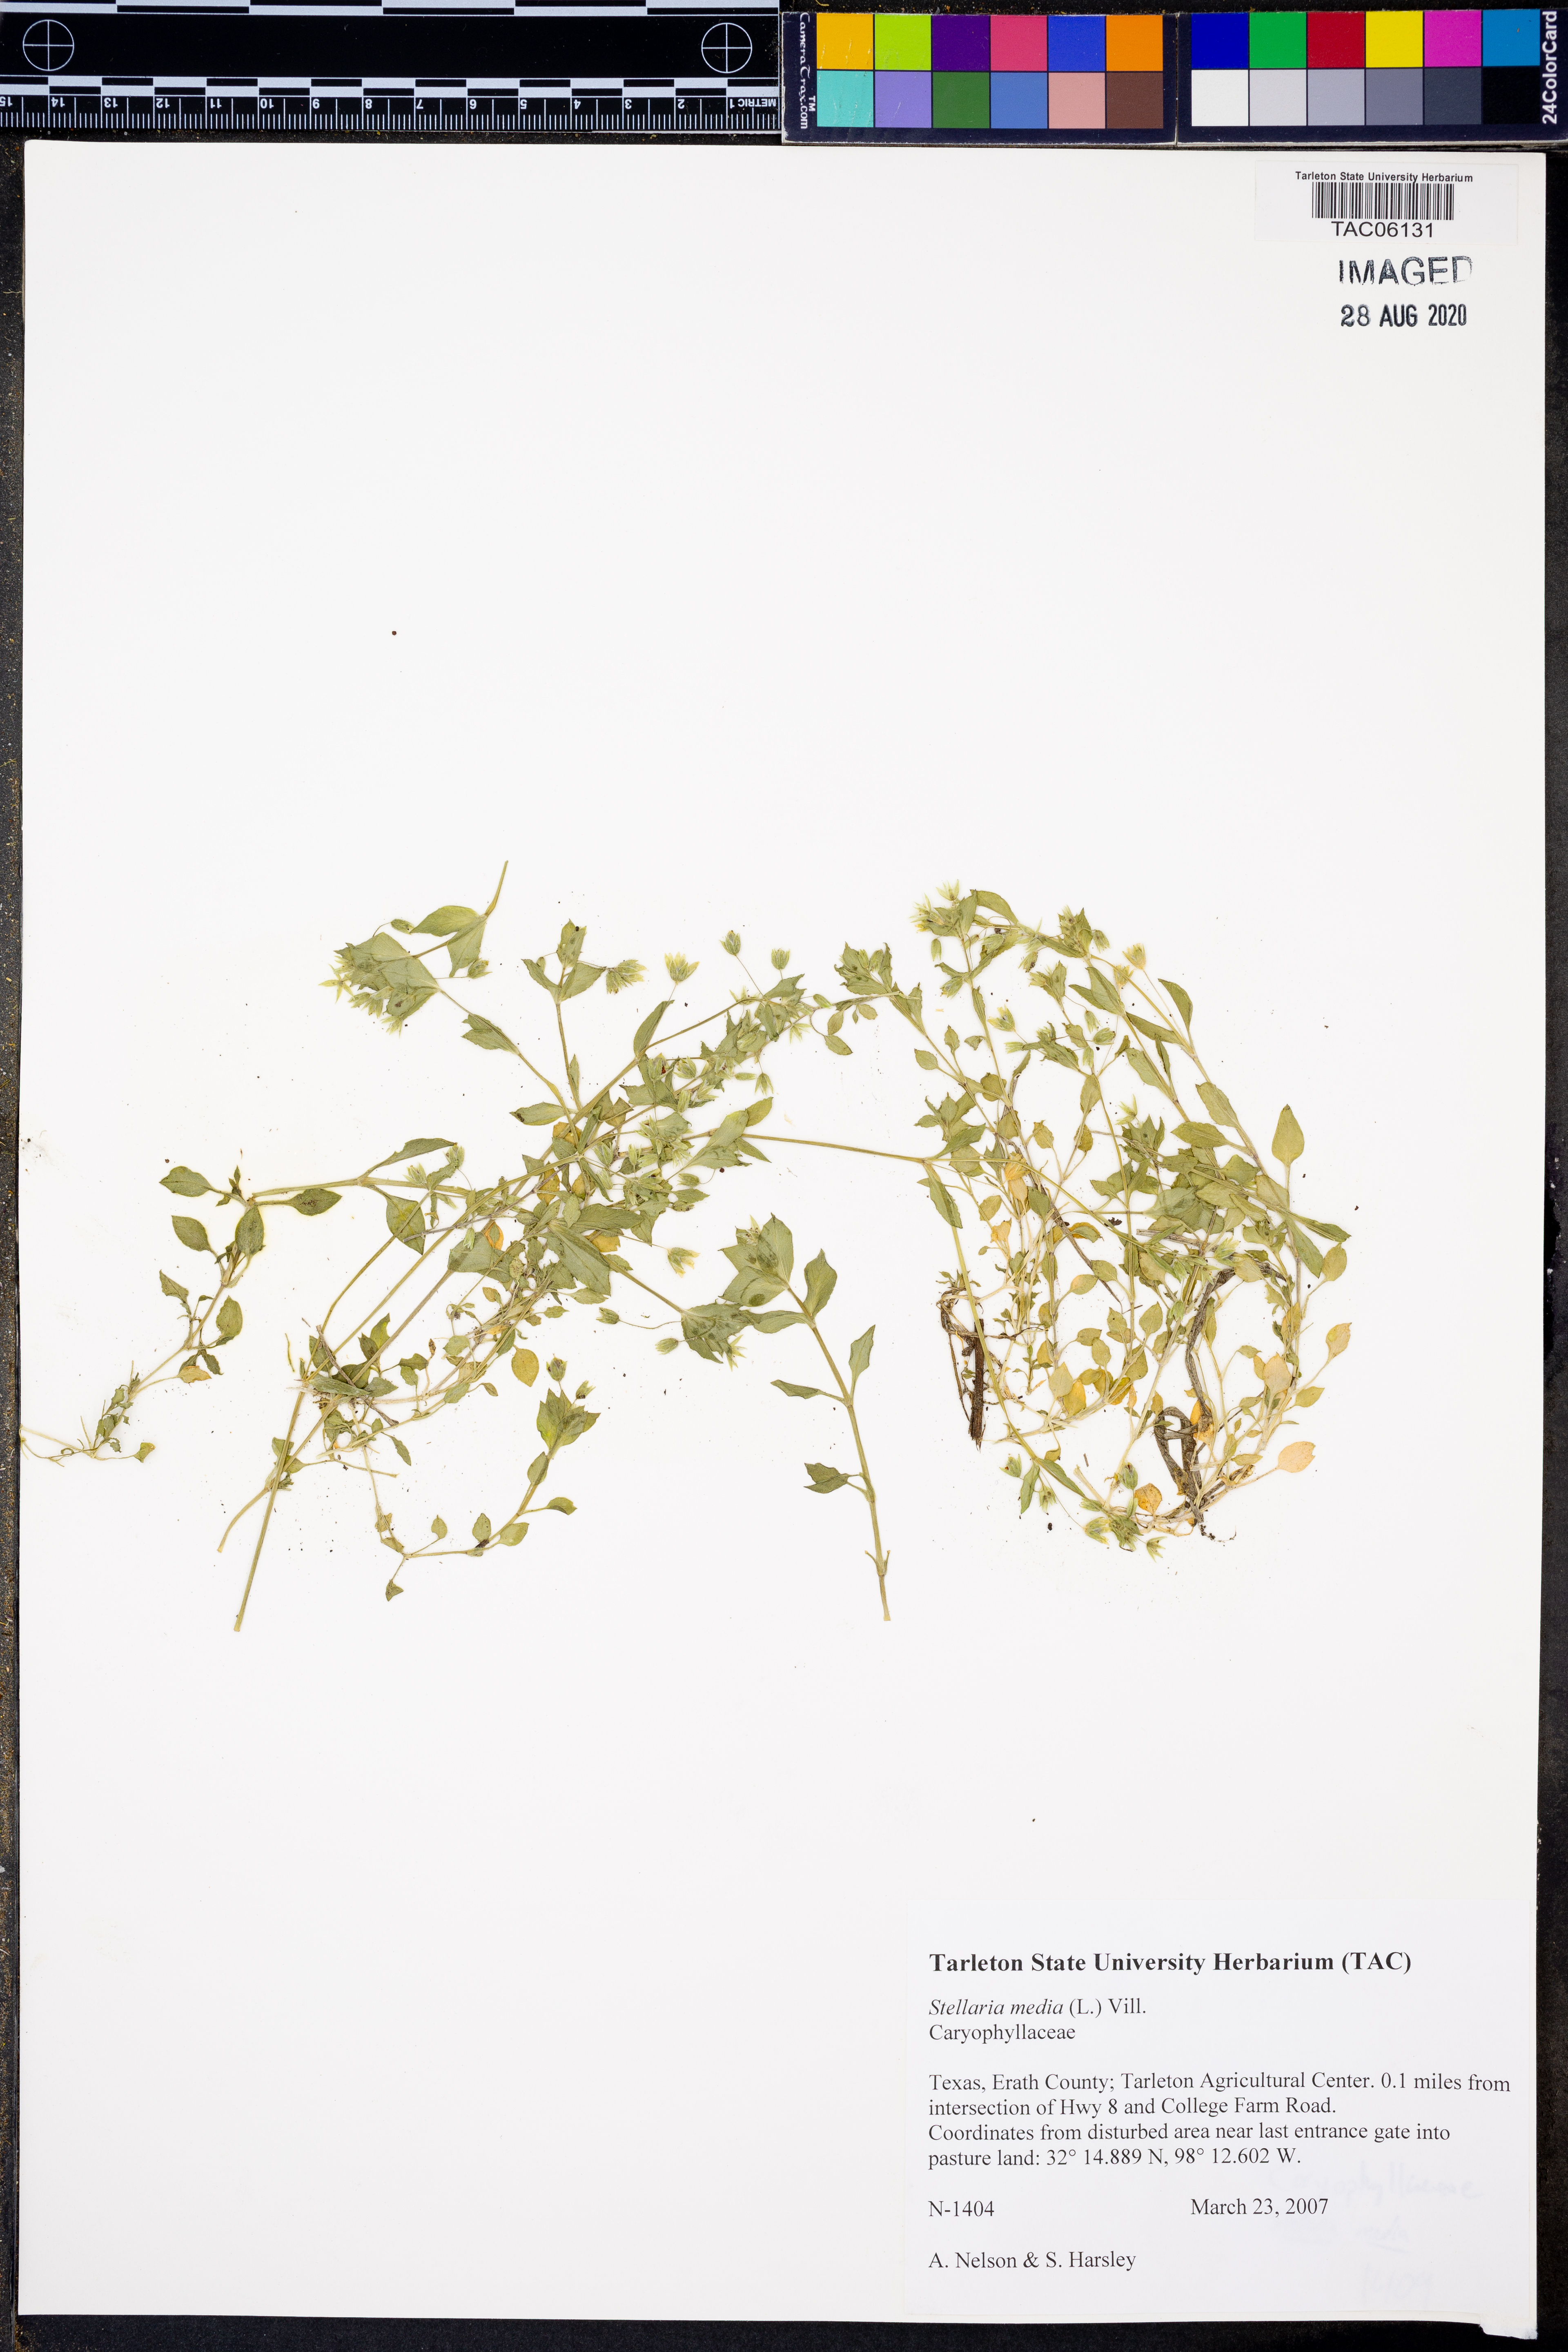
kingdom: Plantae
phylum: Tracheophyta
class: Magnoliopsida
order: Caryophyllales
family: Caryophyllaceae
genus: Stellaria
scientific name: Stellaria media
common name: Common chickweed
